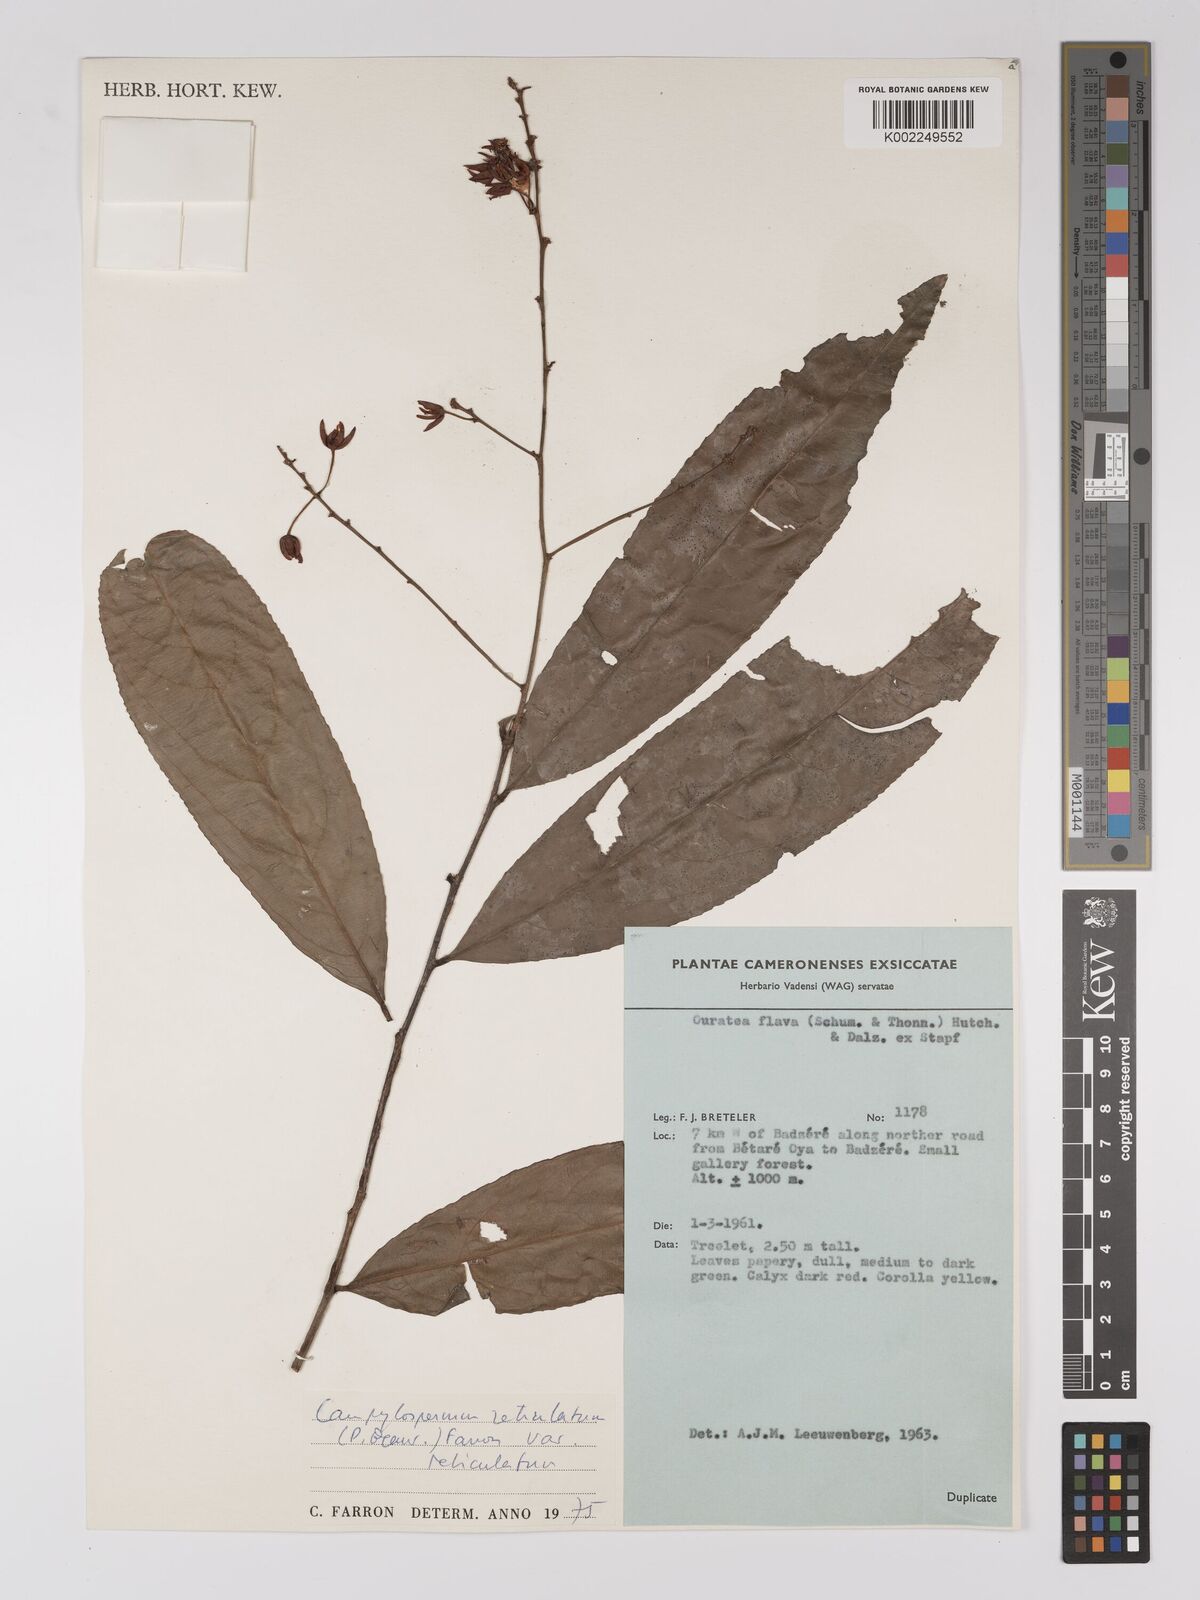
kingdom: Plantae
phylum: Tracheophyta
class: Magnoliopsida
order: Malpighiales
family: Ochnaceae
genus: Campylospermum
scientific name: Campylospermum reticulatum
